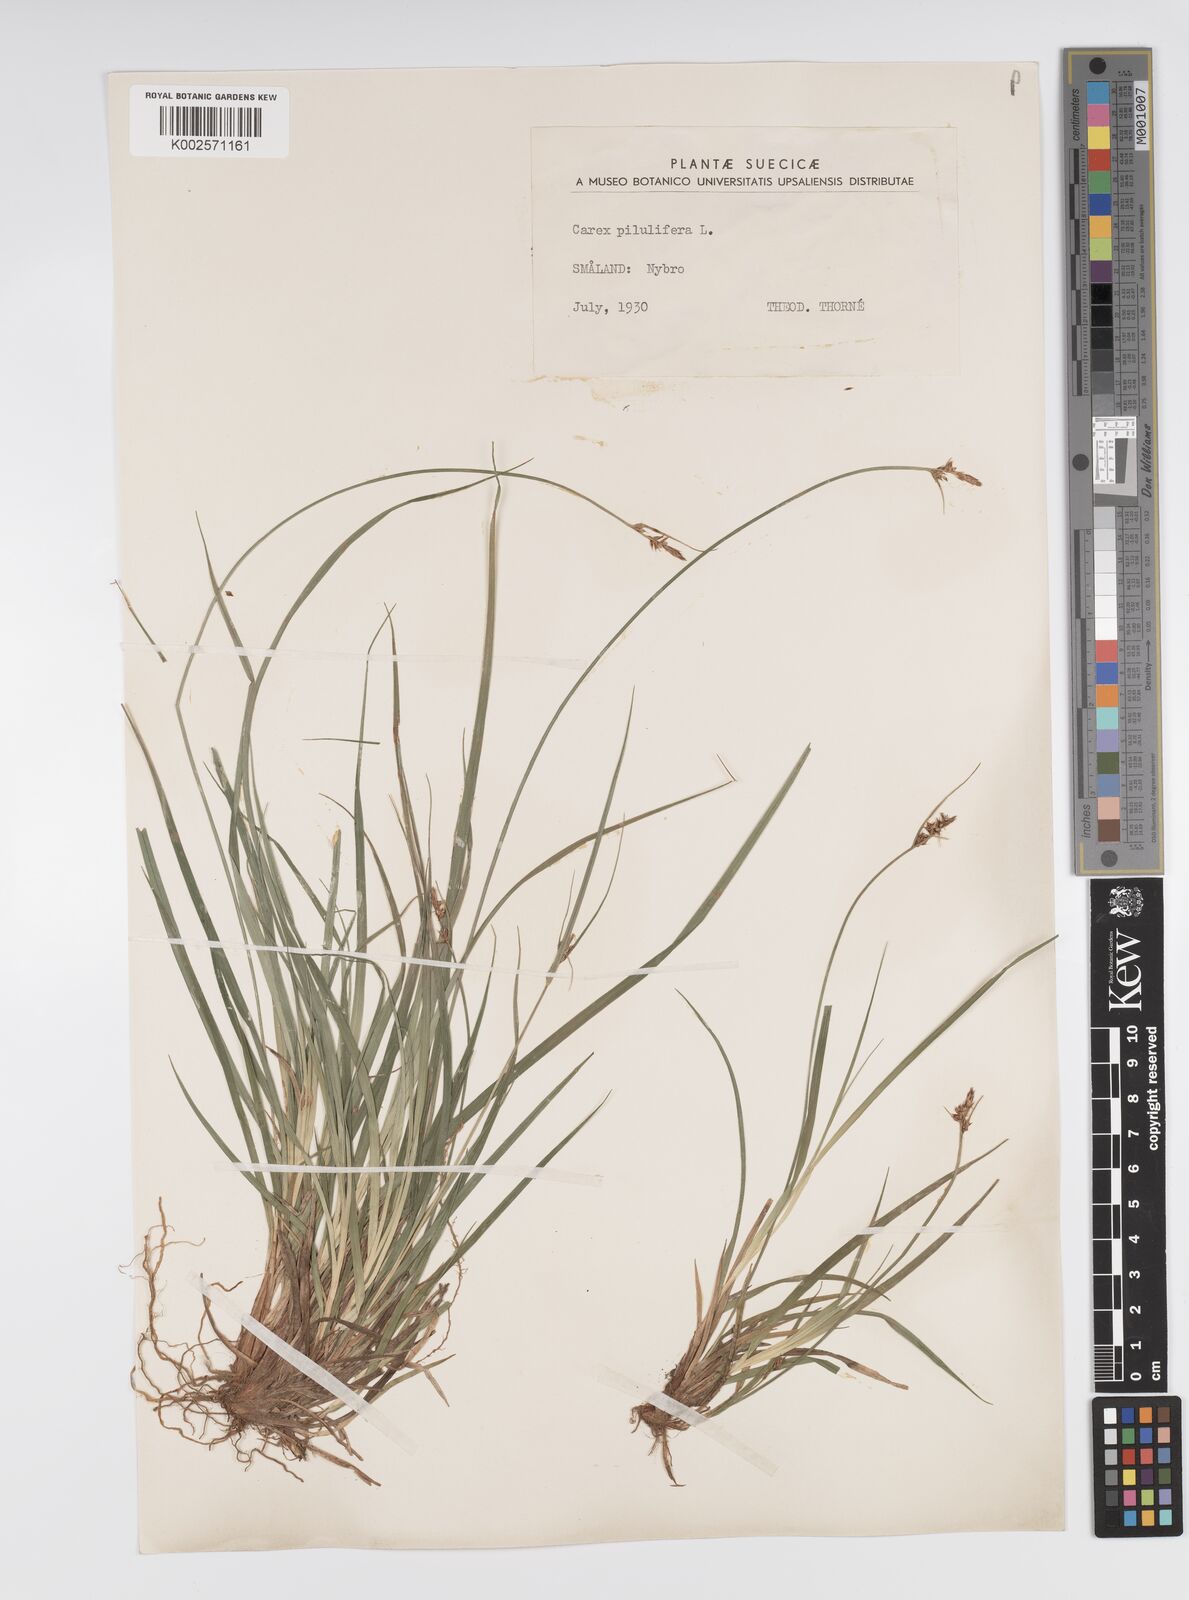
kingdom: Plantae
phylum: Tracheophyta
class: Liliopsida
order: Poales
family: Cyperaceae
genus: Carex
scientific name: Carex pilulifera
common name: Pill sedge
